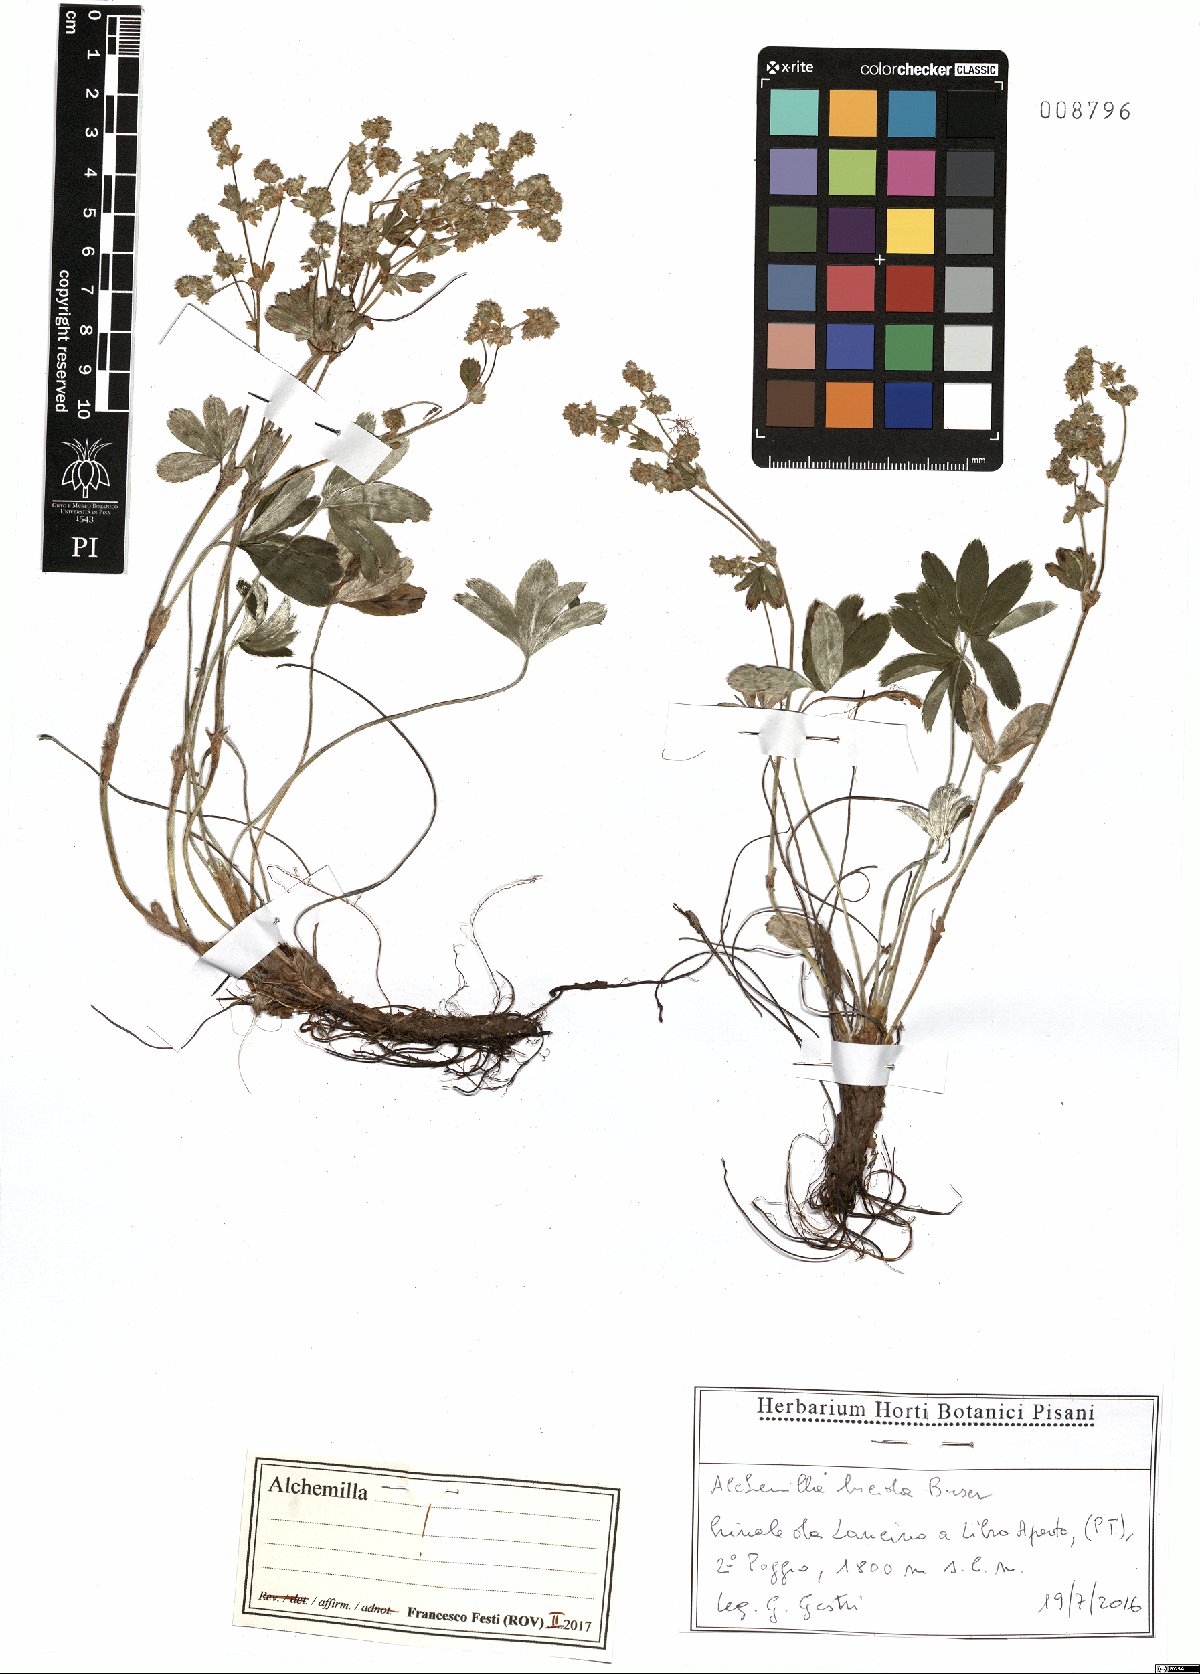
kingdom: Plantae
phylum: Tracheophyta
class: Magnoliopsida
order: Rosales
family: Rosaceae
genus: Alchemilla
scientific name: Alchemilla lucida
